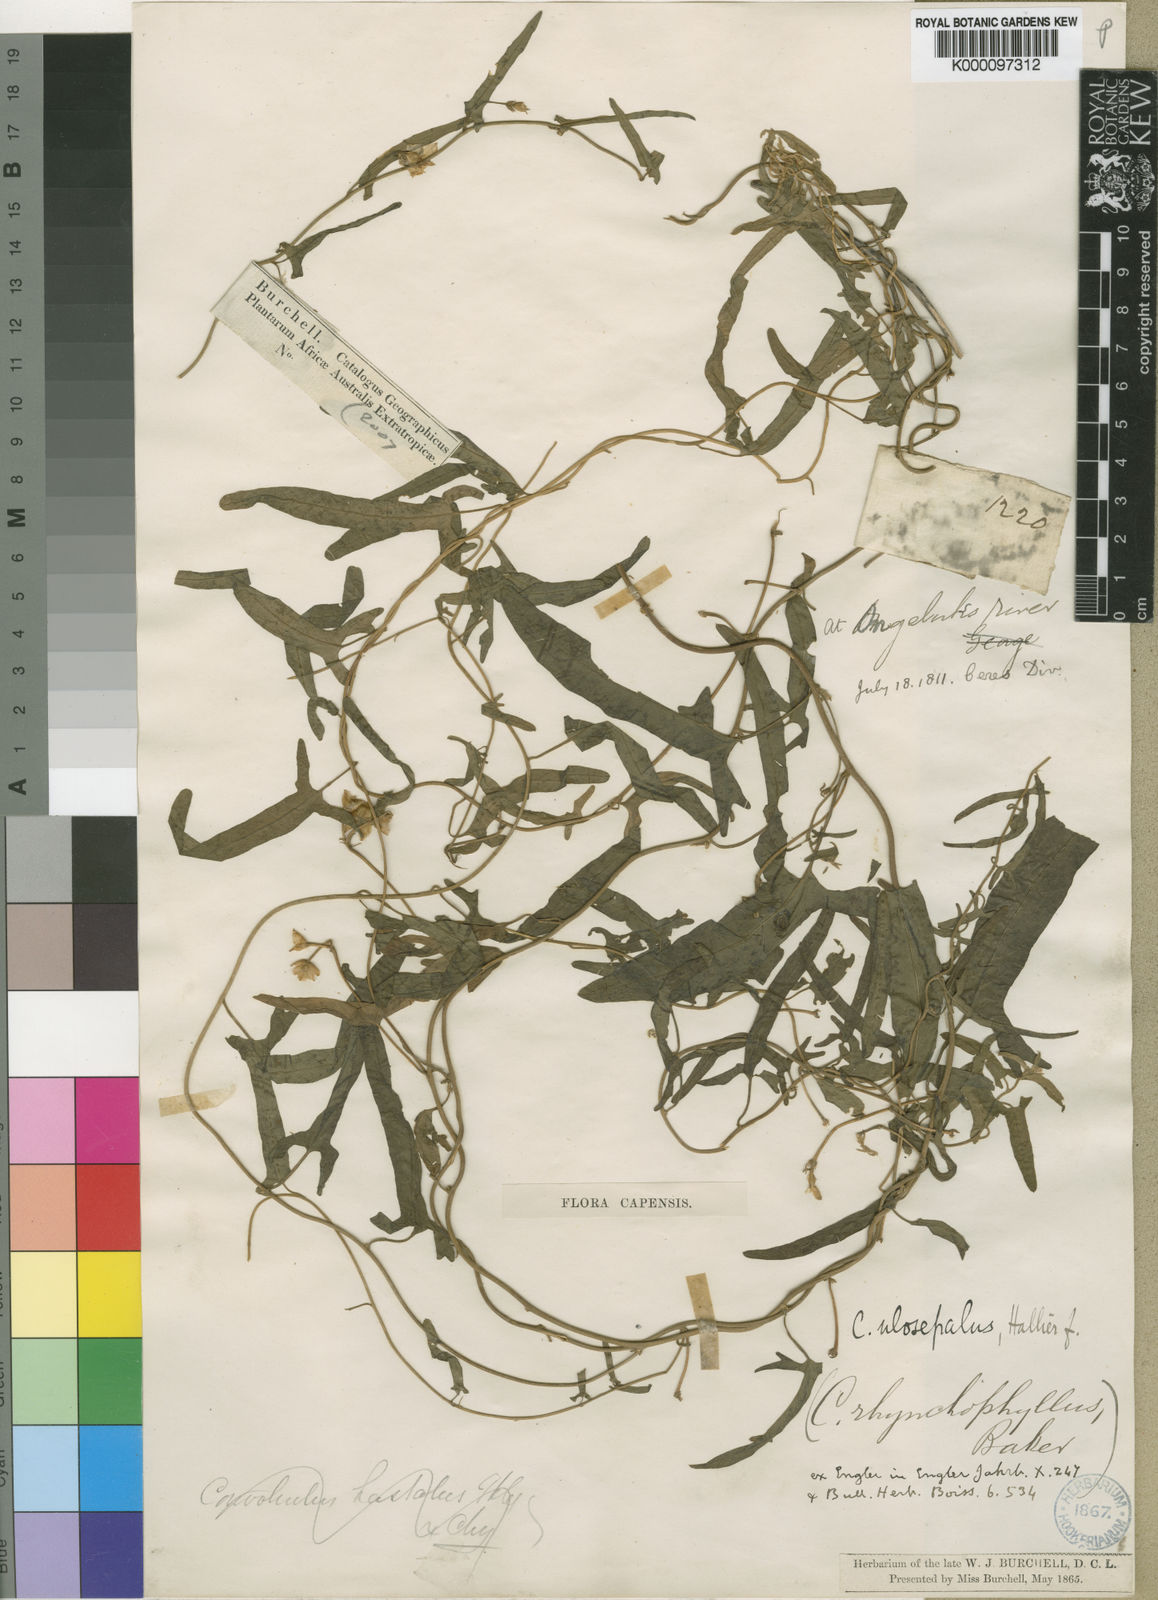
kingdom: Plantae
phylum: Tracheophyta
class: Magnoliopsida
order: Solanales
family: Convolvulaceae
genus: Convolvulus
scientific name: Convolvulus aschersonii
